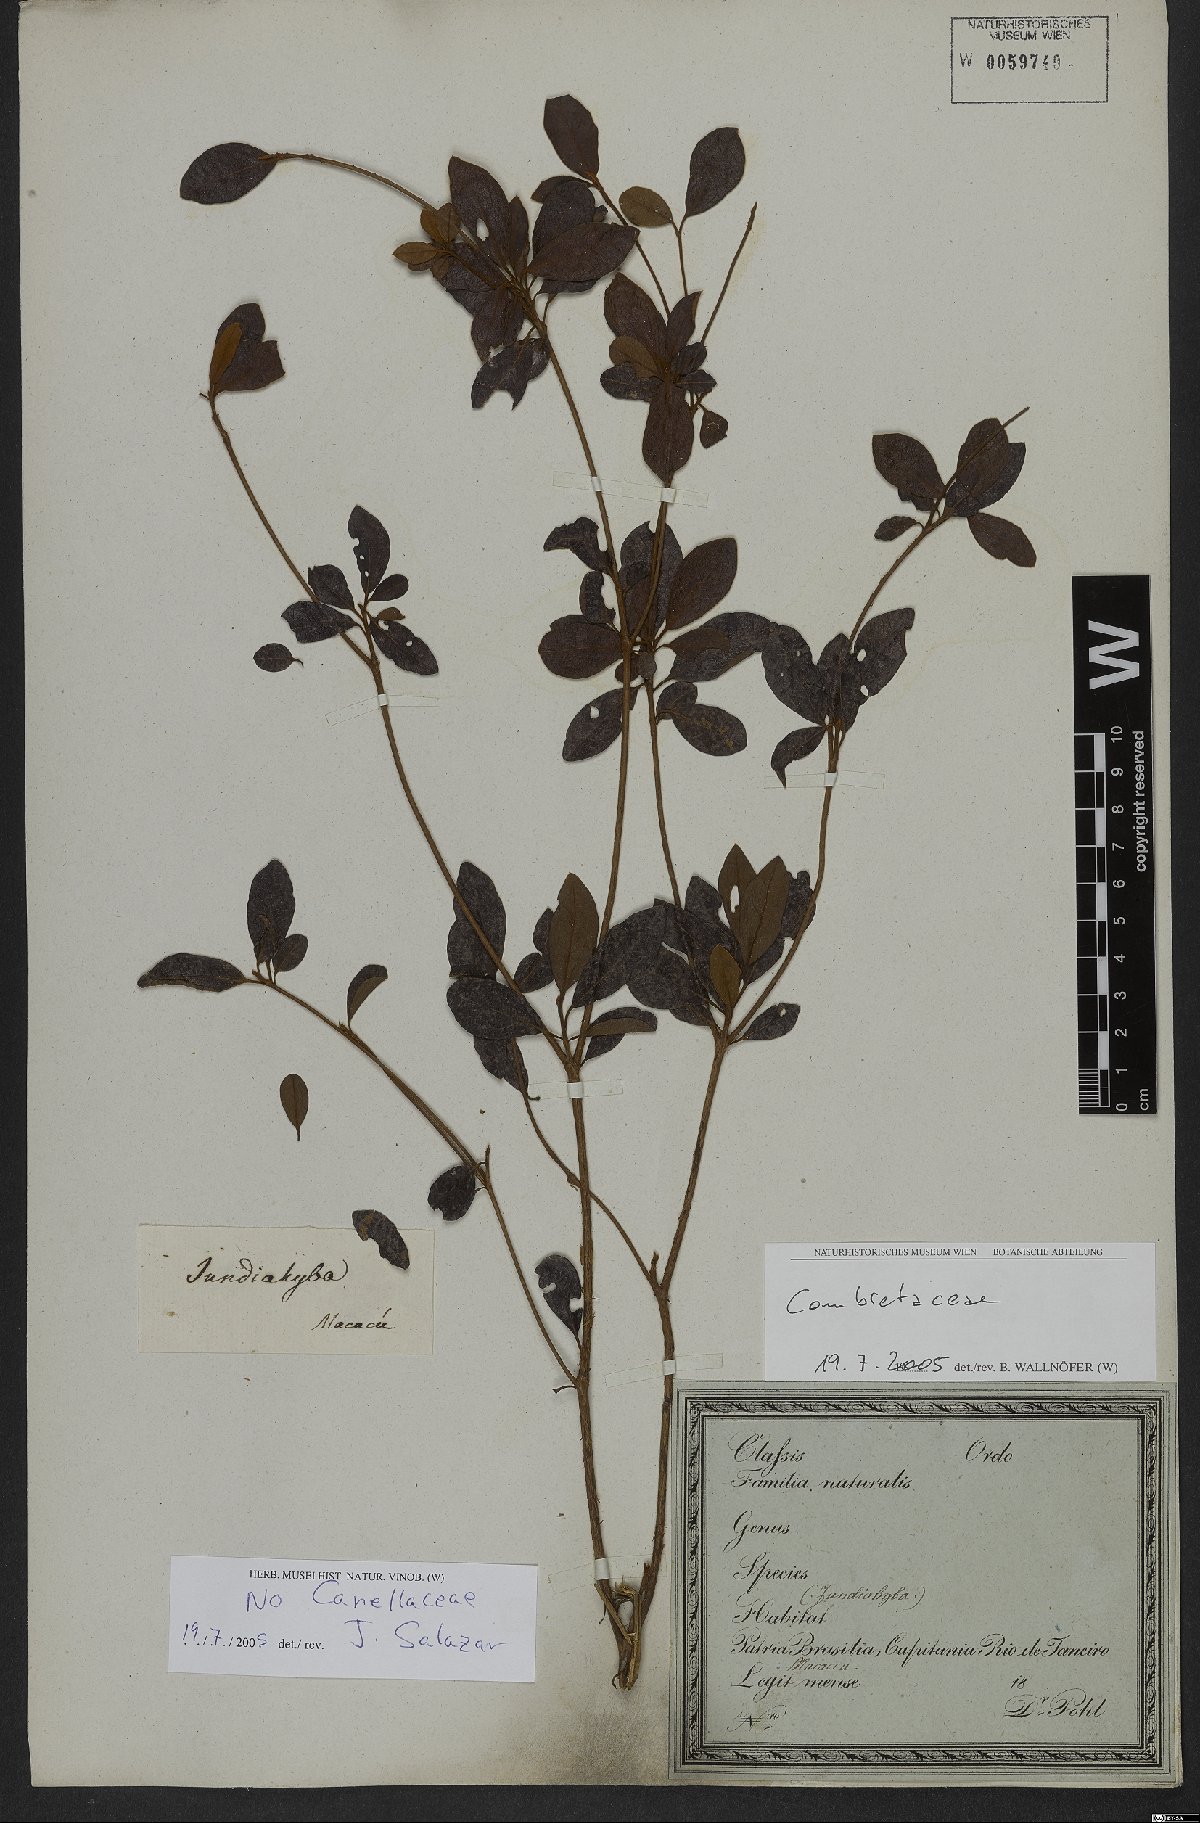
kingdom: Plantae
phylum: Tracheophyta
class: Magnoliopsida
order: Myrtales
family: Combretaceae
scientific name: Combretaceae
